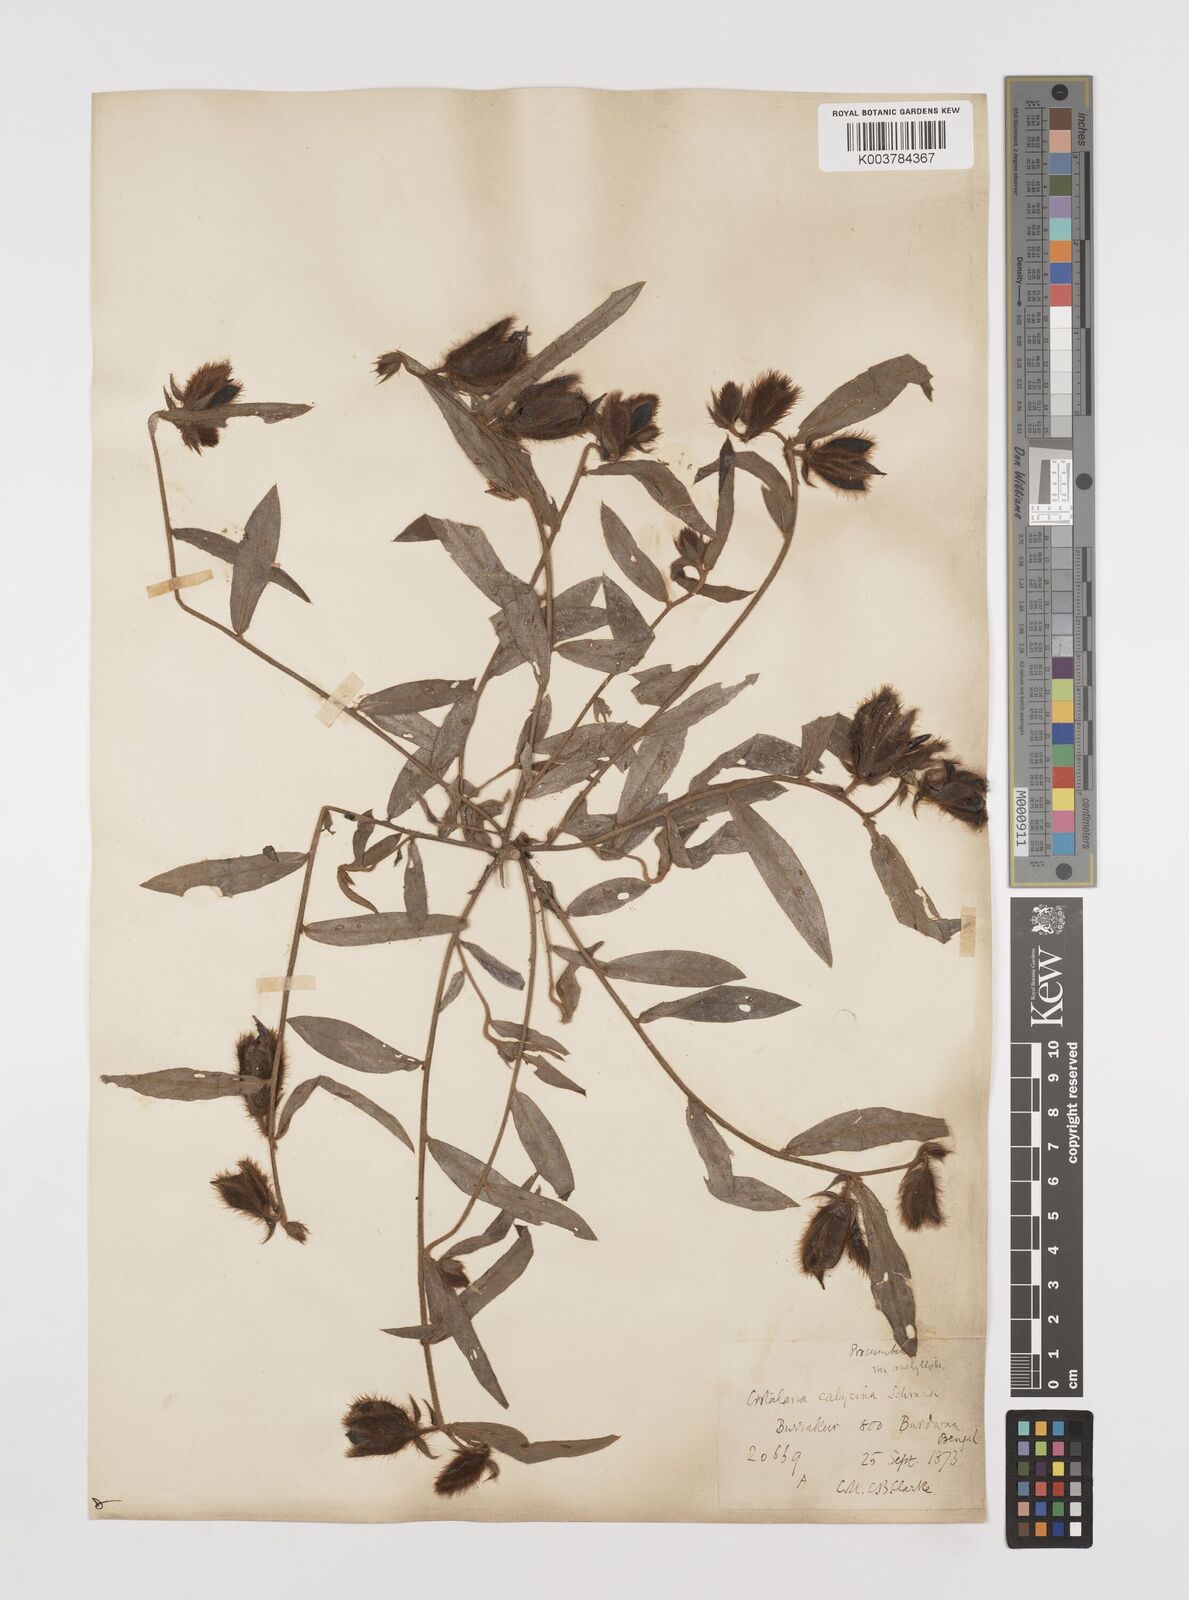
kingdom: Plantae
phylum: Tracheophyta
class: Magnoliopsida
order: Fabales
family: Fabaceae
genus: Crotalaria
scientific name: Crotalaria calycina
